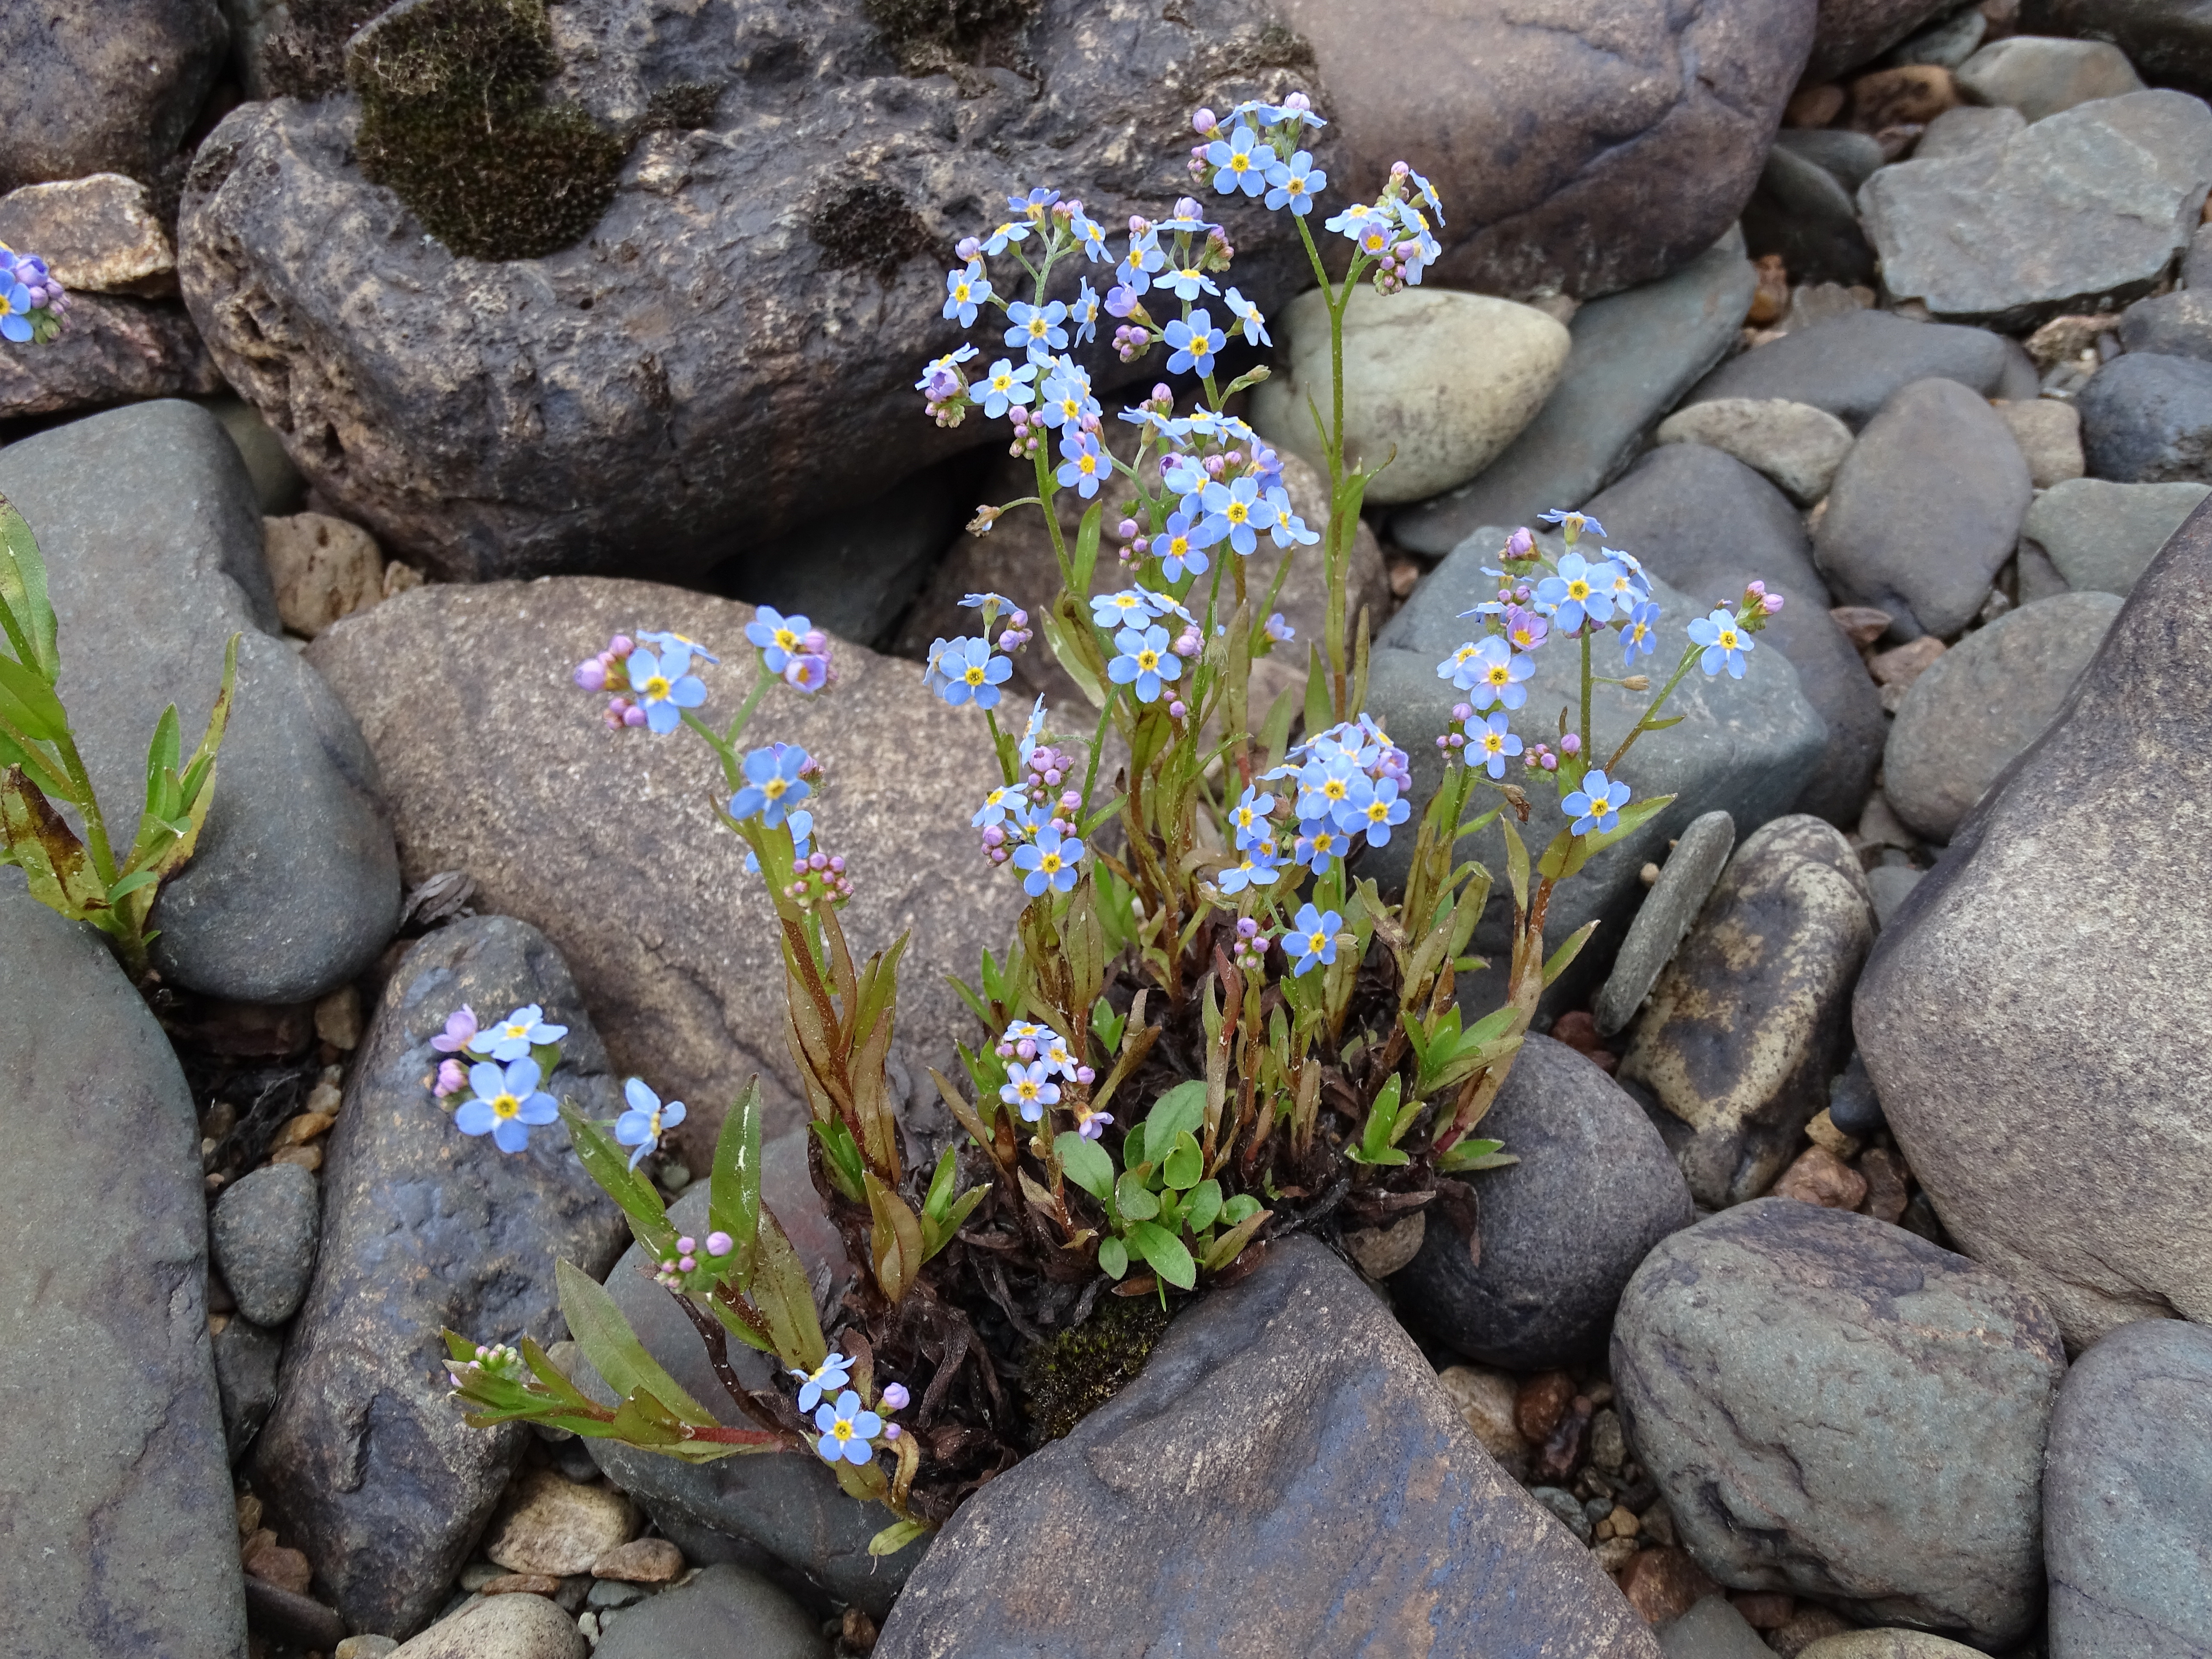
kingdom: Plantae
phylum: Tracheophyta
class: Magnoliopsida
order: Boraginales
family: Boraginaceae
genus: Myosotis
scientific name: Myosotis scorpioides
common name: Water forget-me-not
